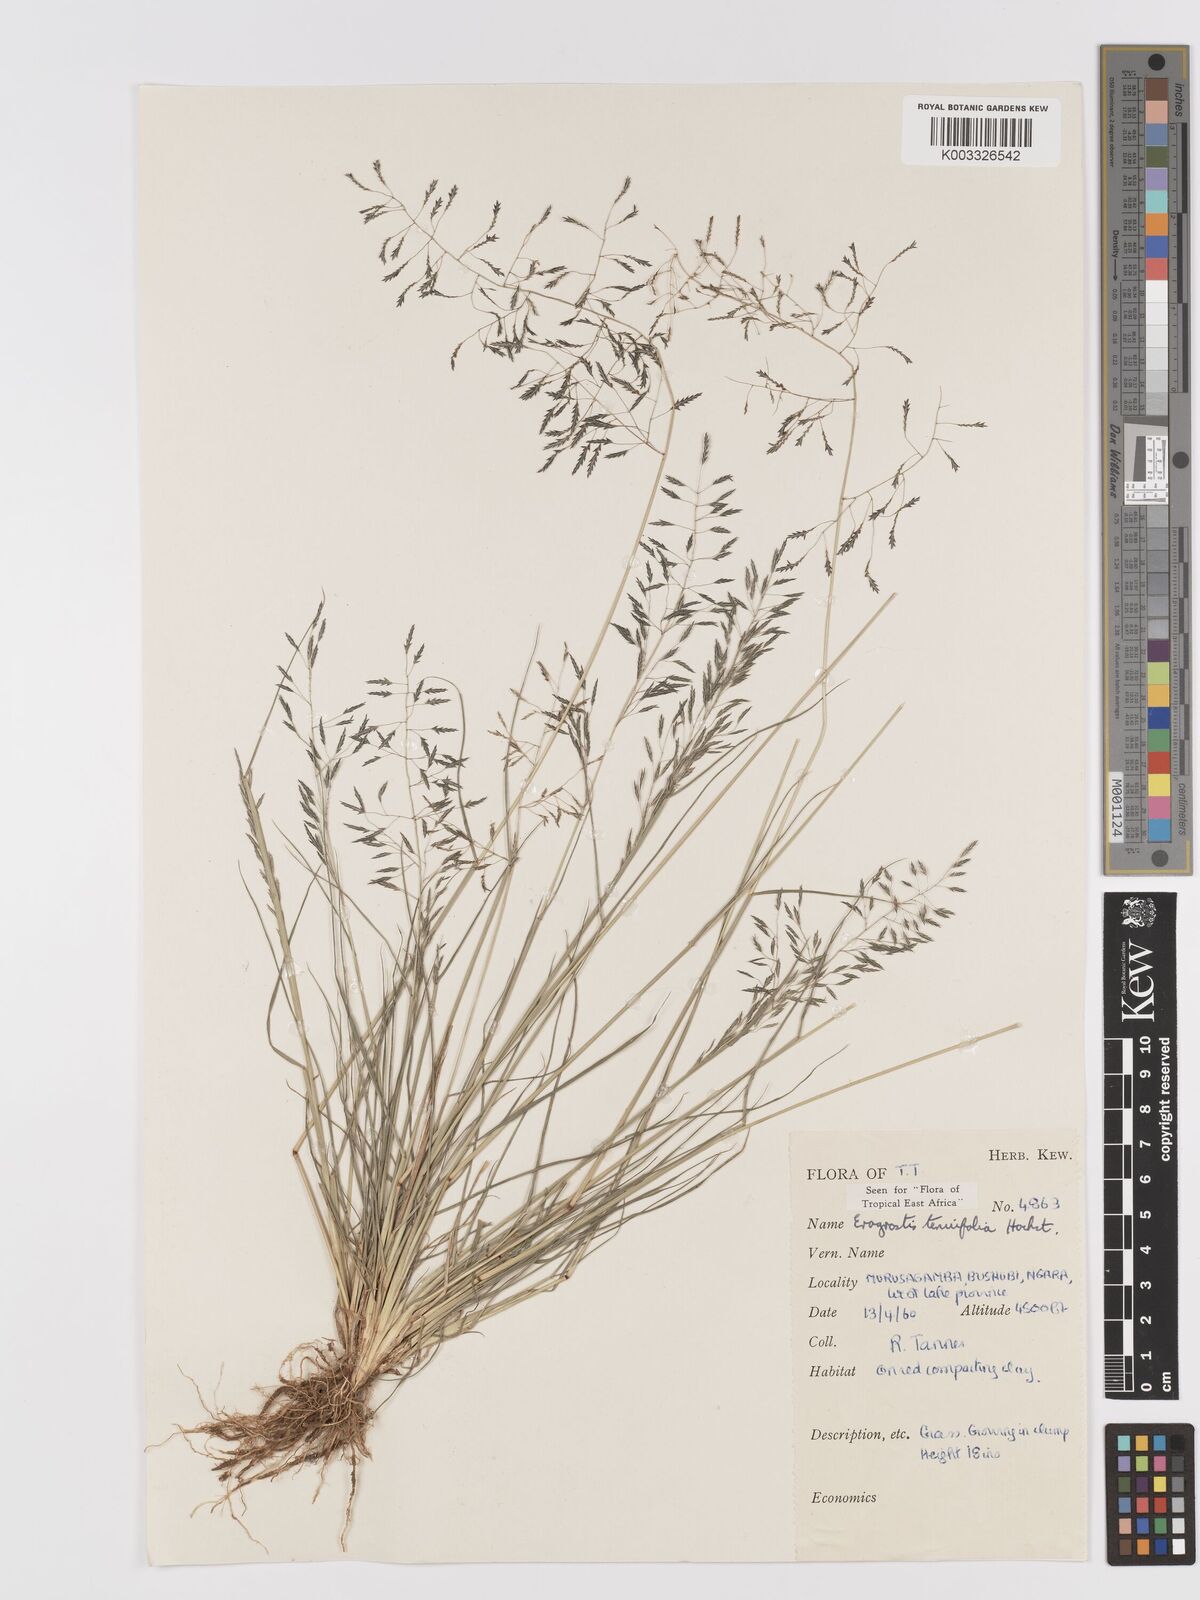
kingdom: Plantae
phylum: Tracheophyta
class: Liliopsida
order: Poales
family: Poaceae
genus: Eragrostis
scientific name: Eragrostis tenuifolia
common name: Elastic grass
